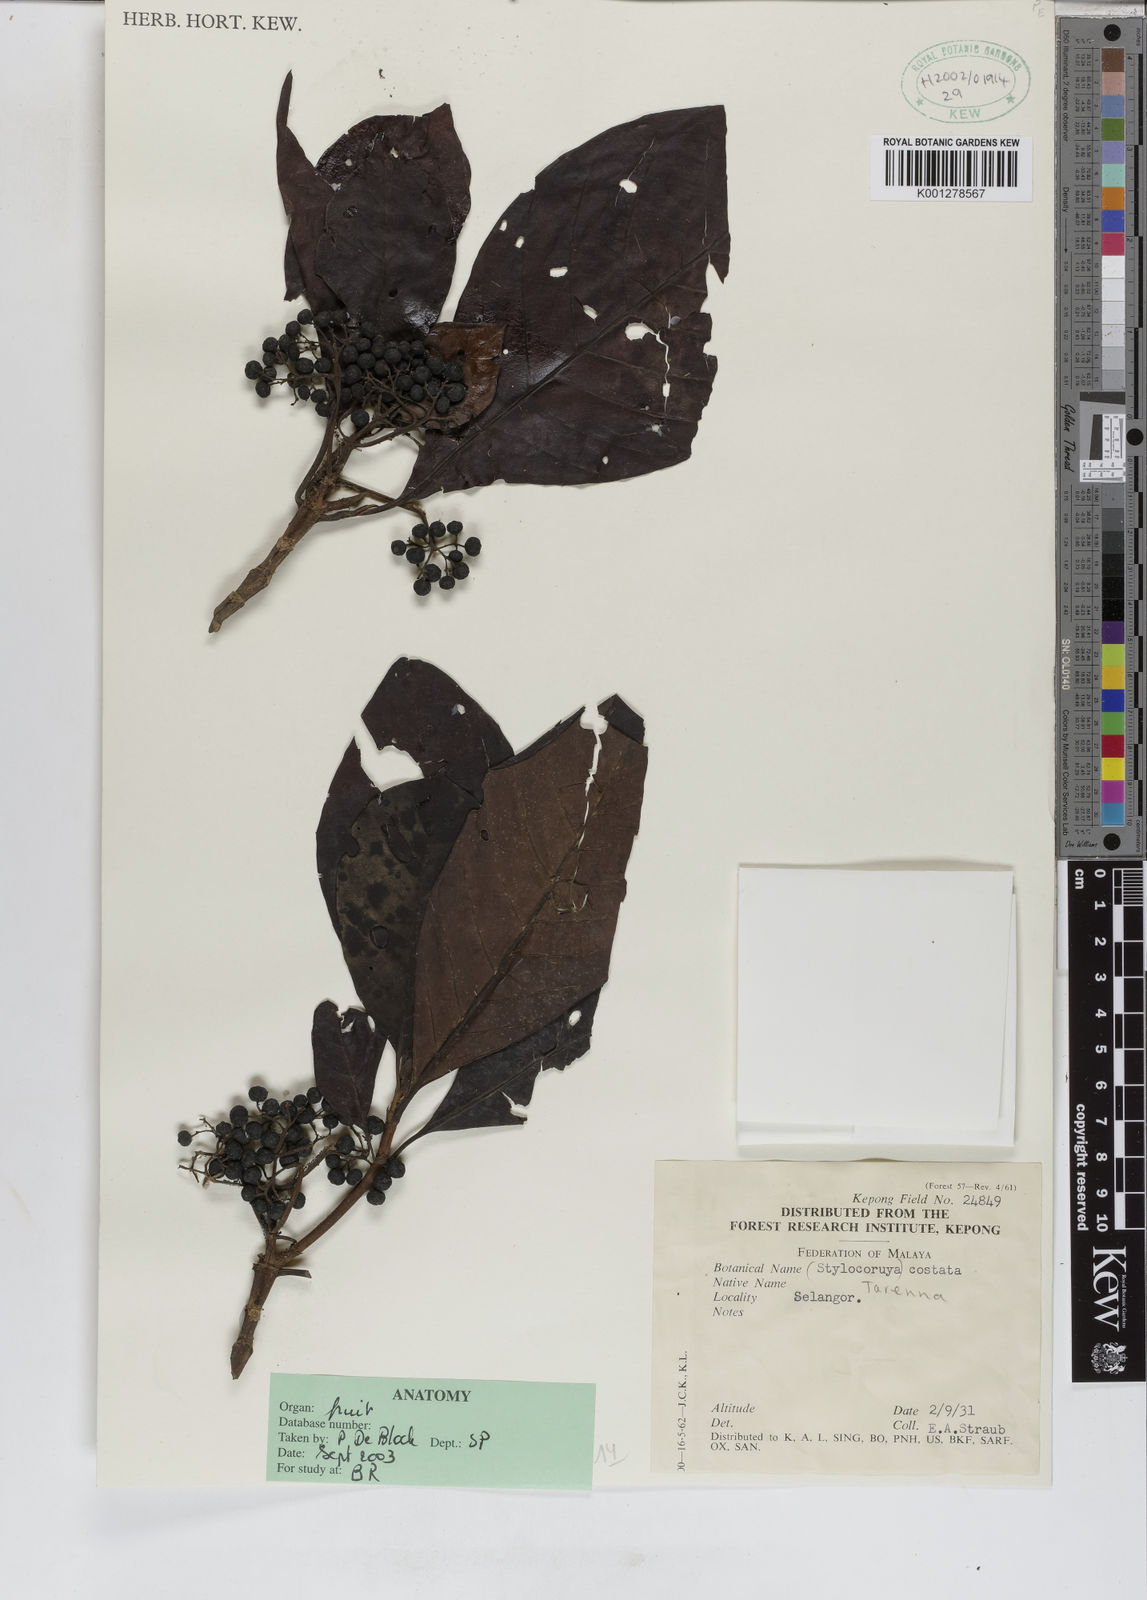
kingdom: Plantae
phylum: Tracheophyta
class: Magnoliopsida
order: Gentianales
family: Rubiaceae
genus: Tarenna
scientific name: Tarenna
